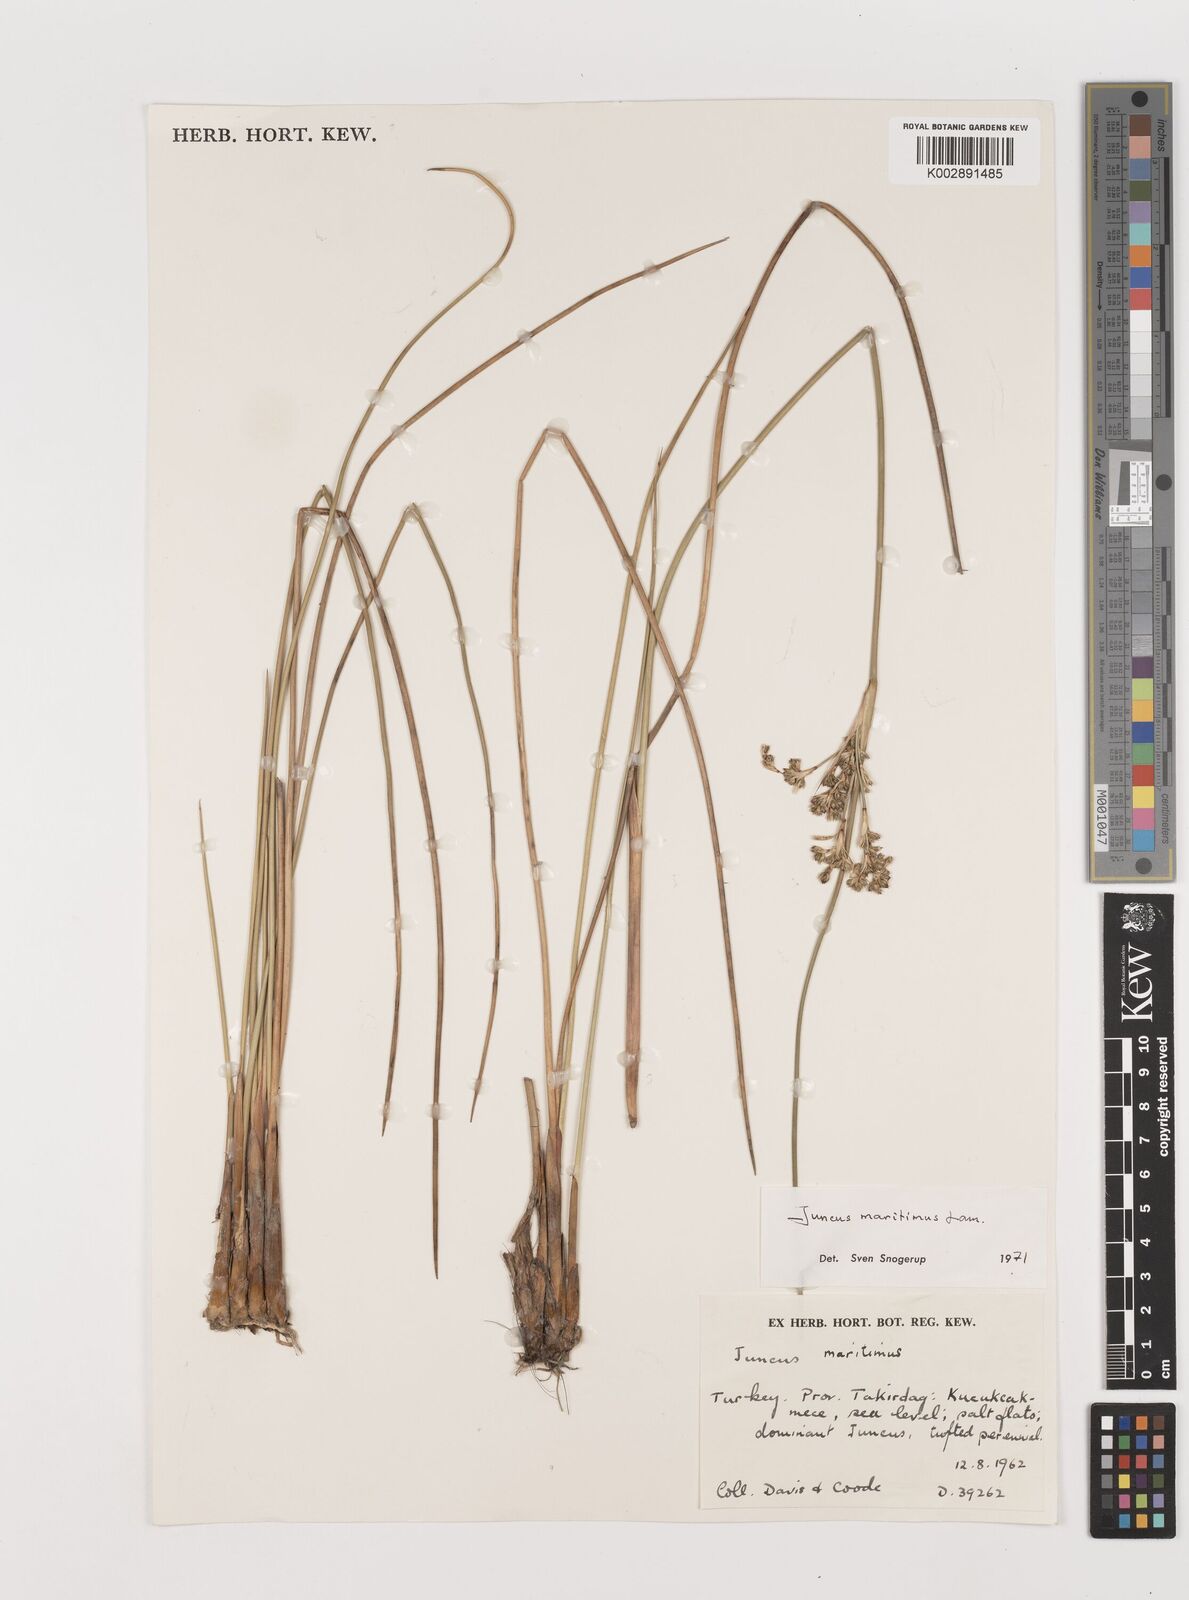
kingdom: Plantae
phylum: Tracheophyta
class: Liliopsida
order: Poales
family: Juncaceae
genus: Juncus
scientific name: Juncus maritimus
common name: Sea rush
